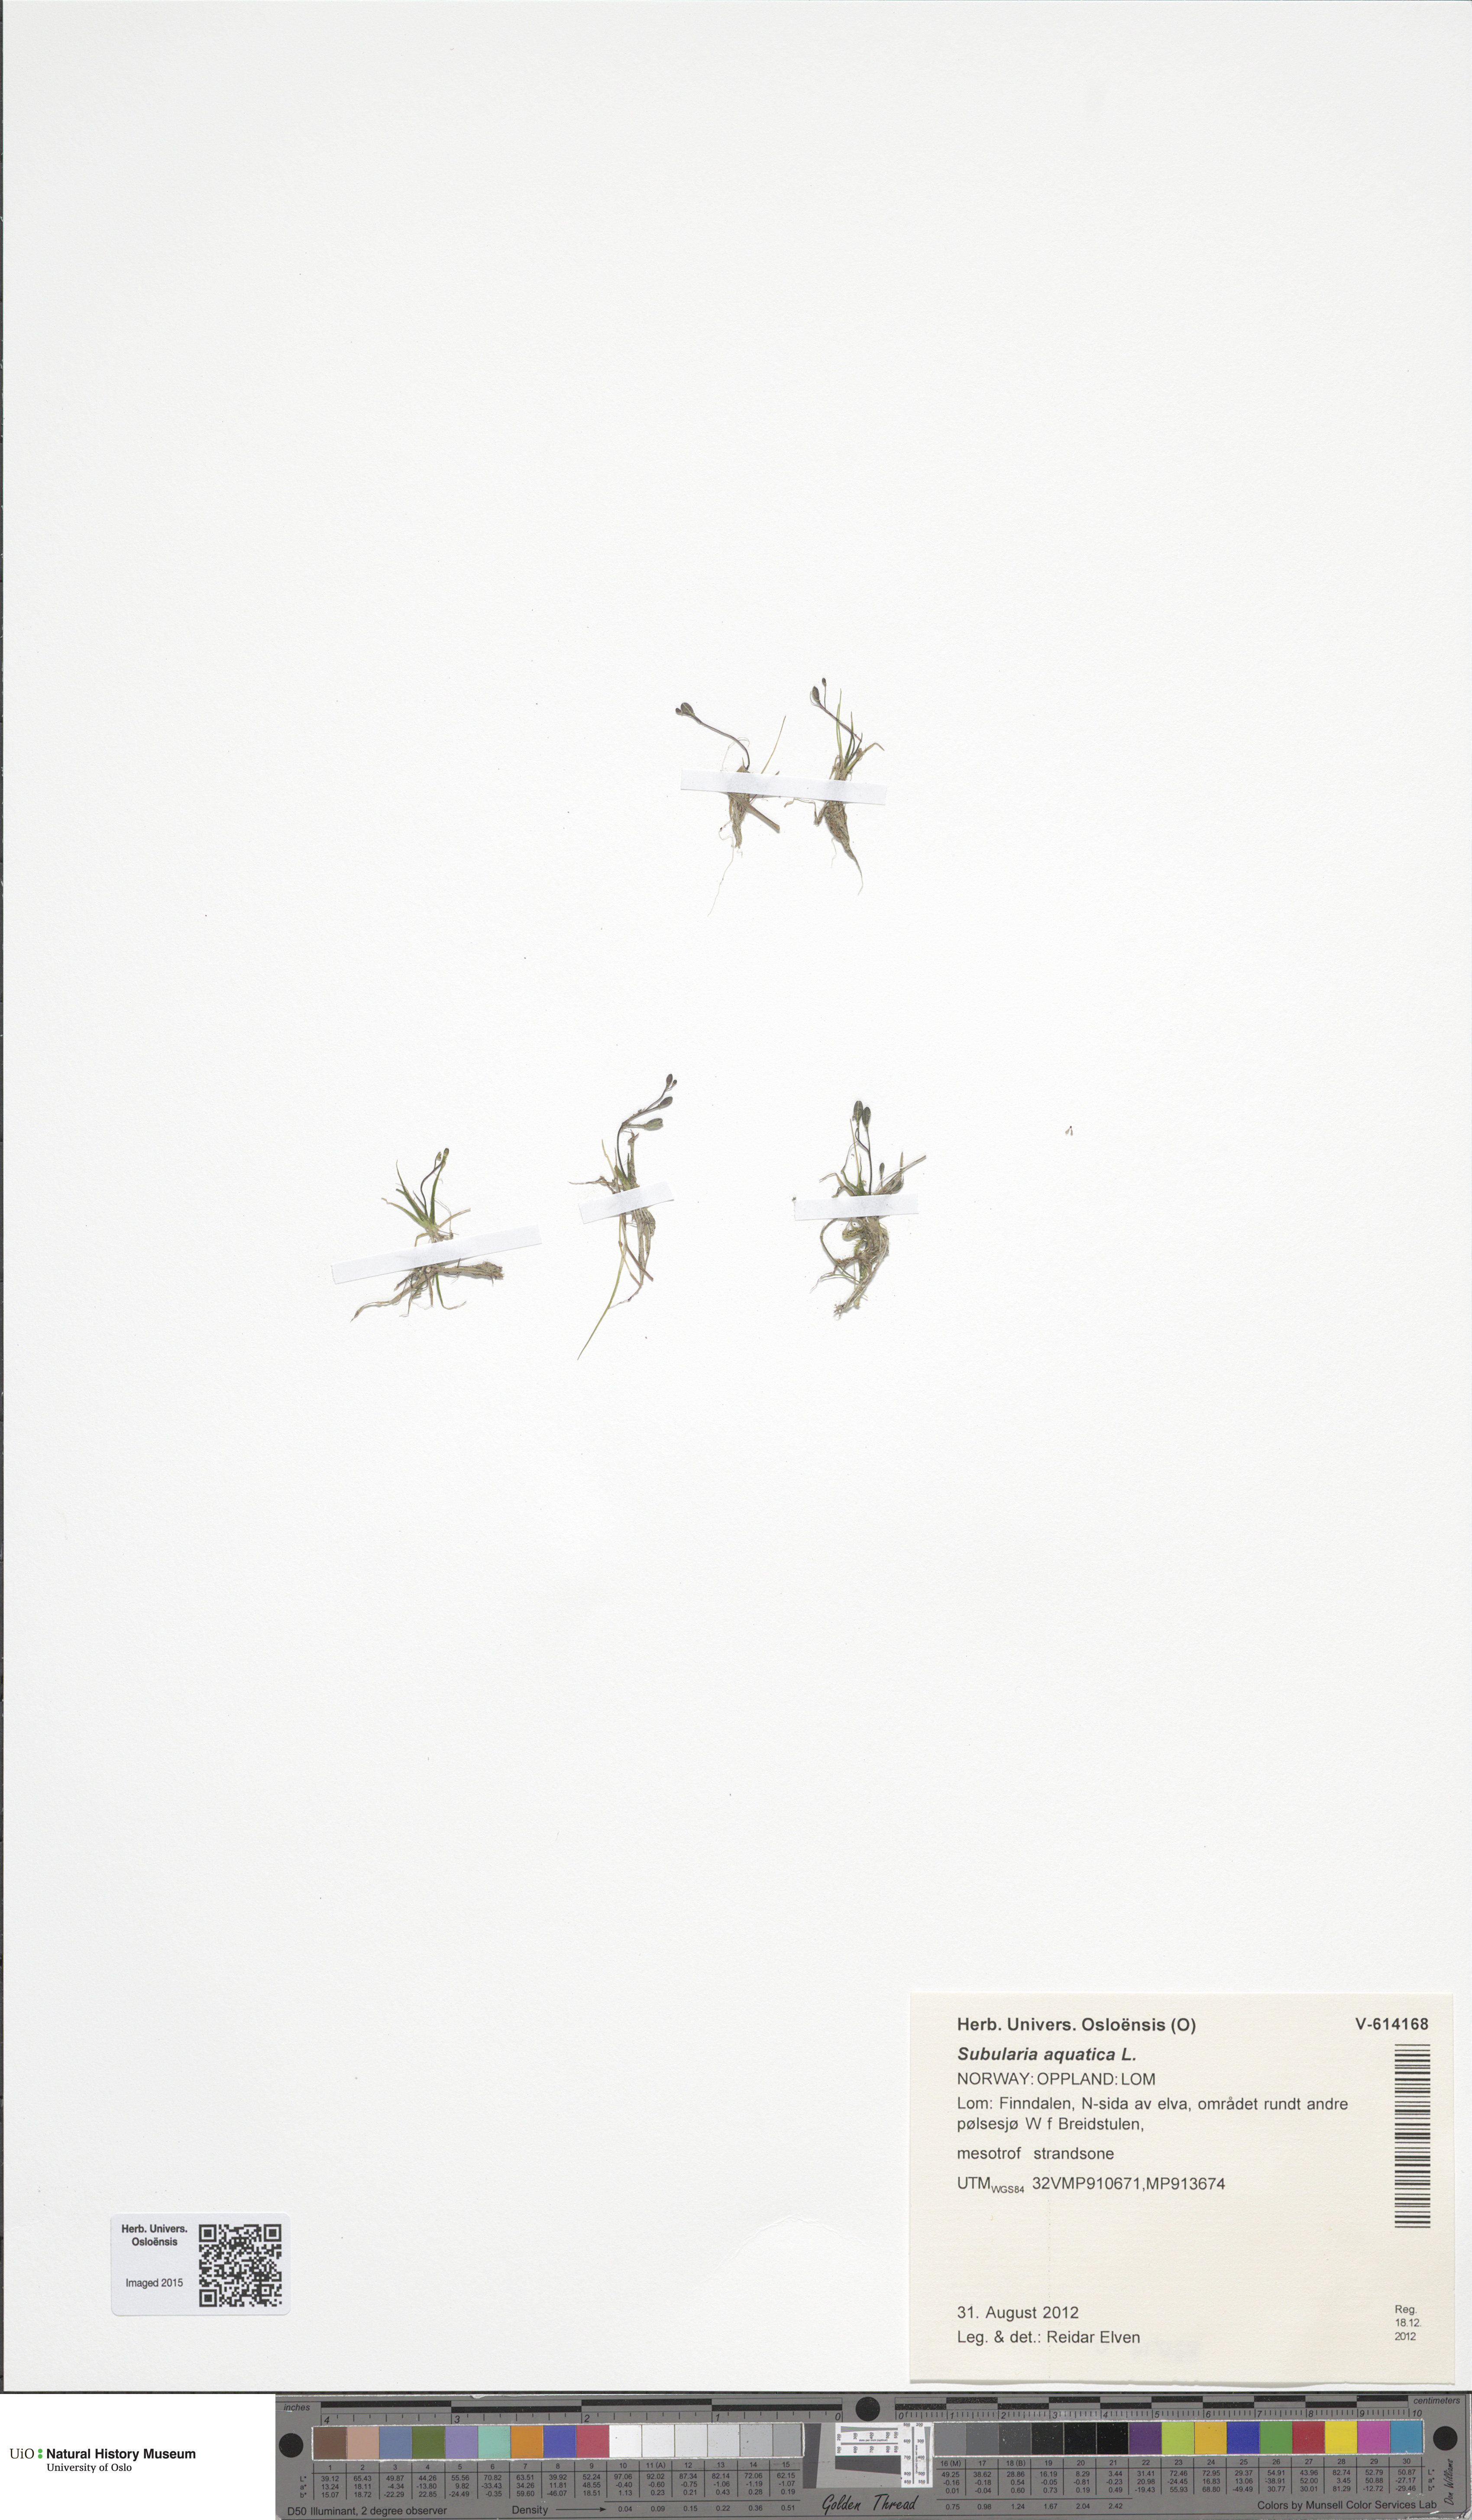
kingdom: Plantae
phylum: Tracheophyta
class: Magnoliopsida
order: Brassicales
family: Brassicaceae
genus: Subularia
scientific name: Subularia aquatica
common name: Awlwort
